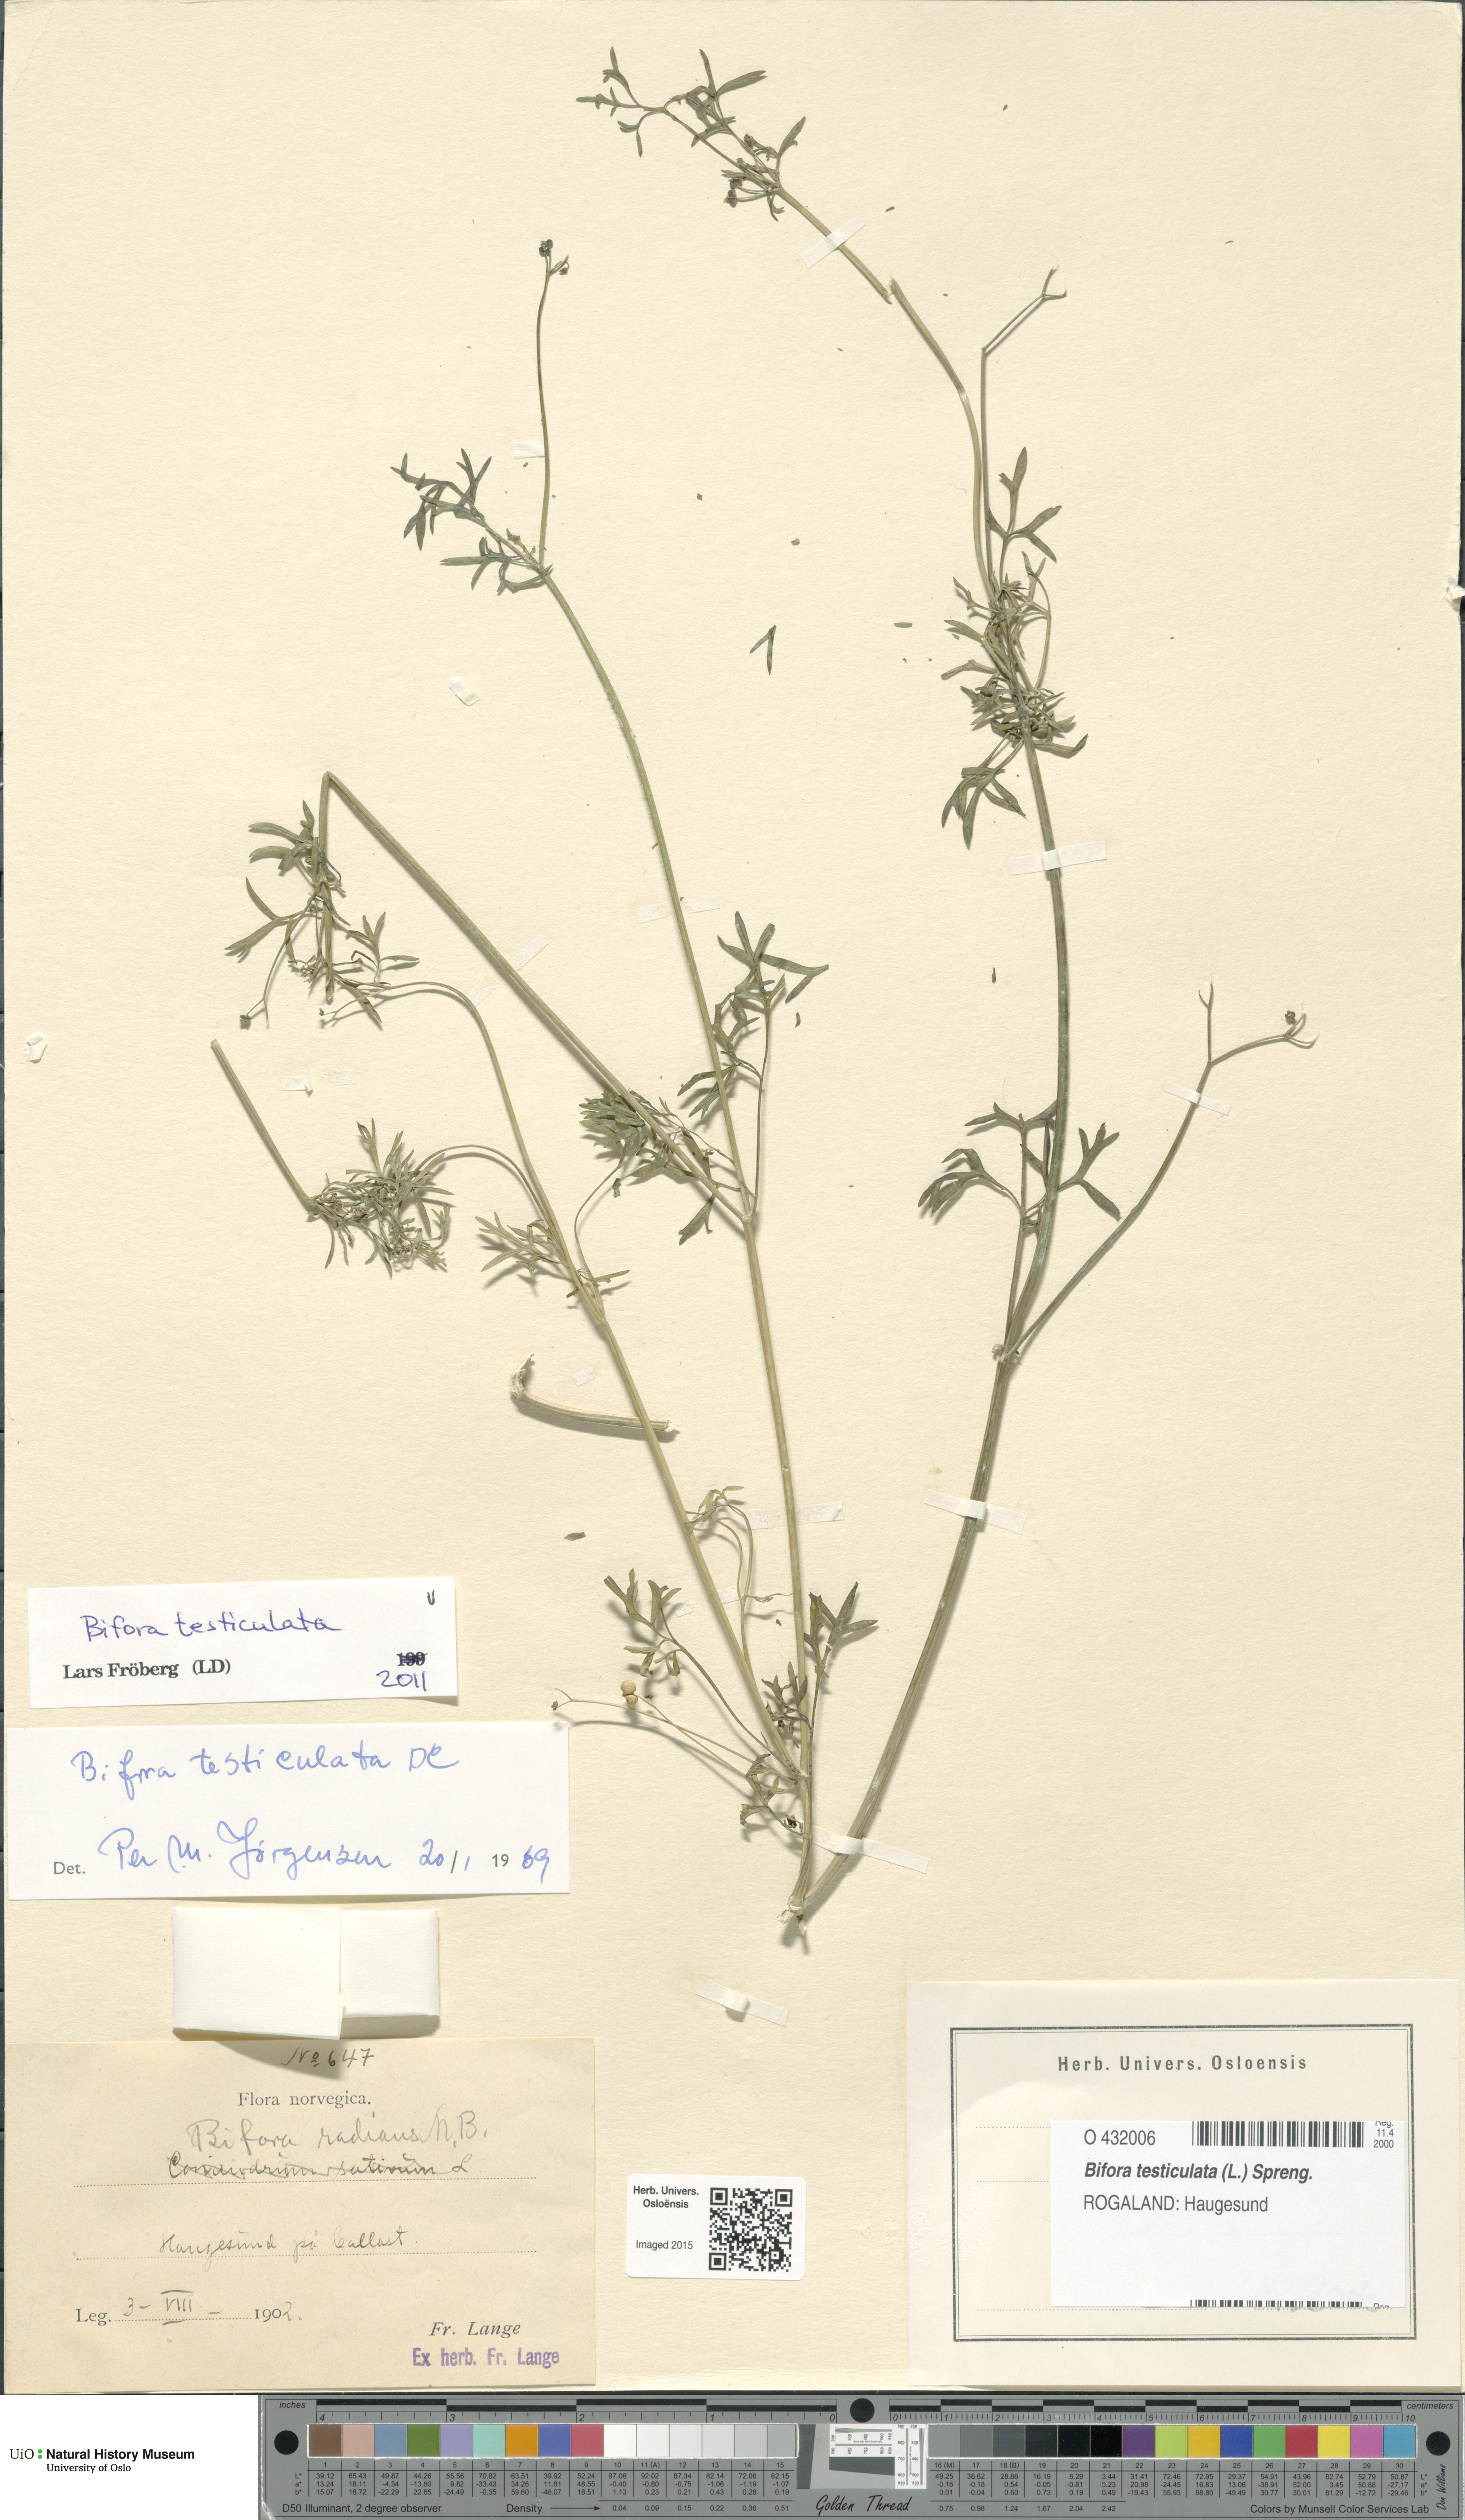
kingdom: Plantae
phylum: Tracheophyta
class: Magnoliopsida
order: Apiales
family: Apiaceae
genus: Bifora
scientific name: Bifora testiculata
